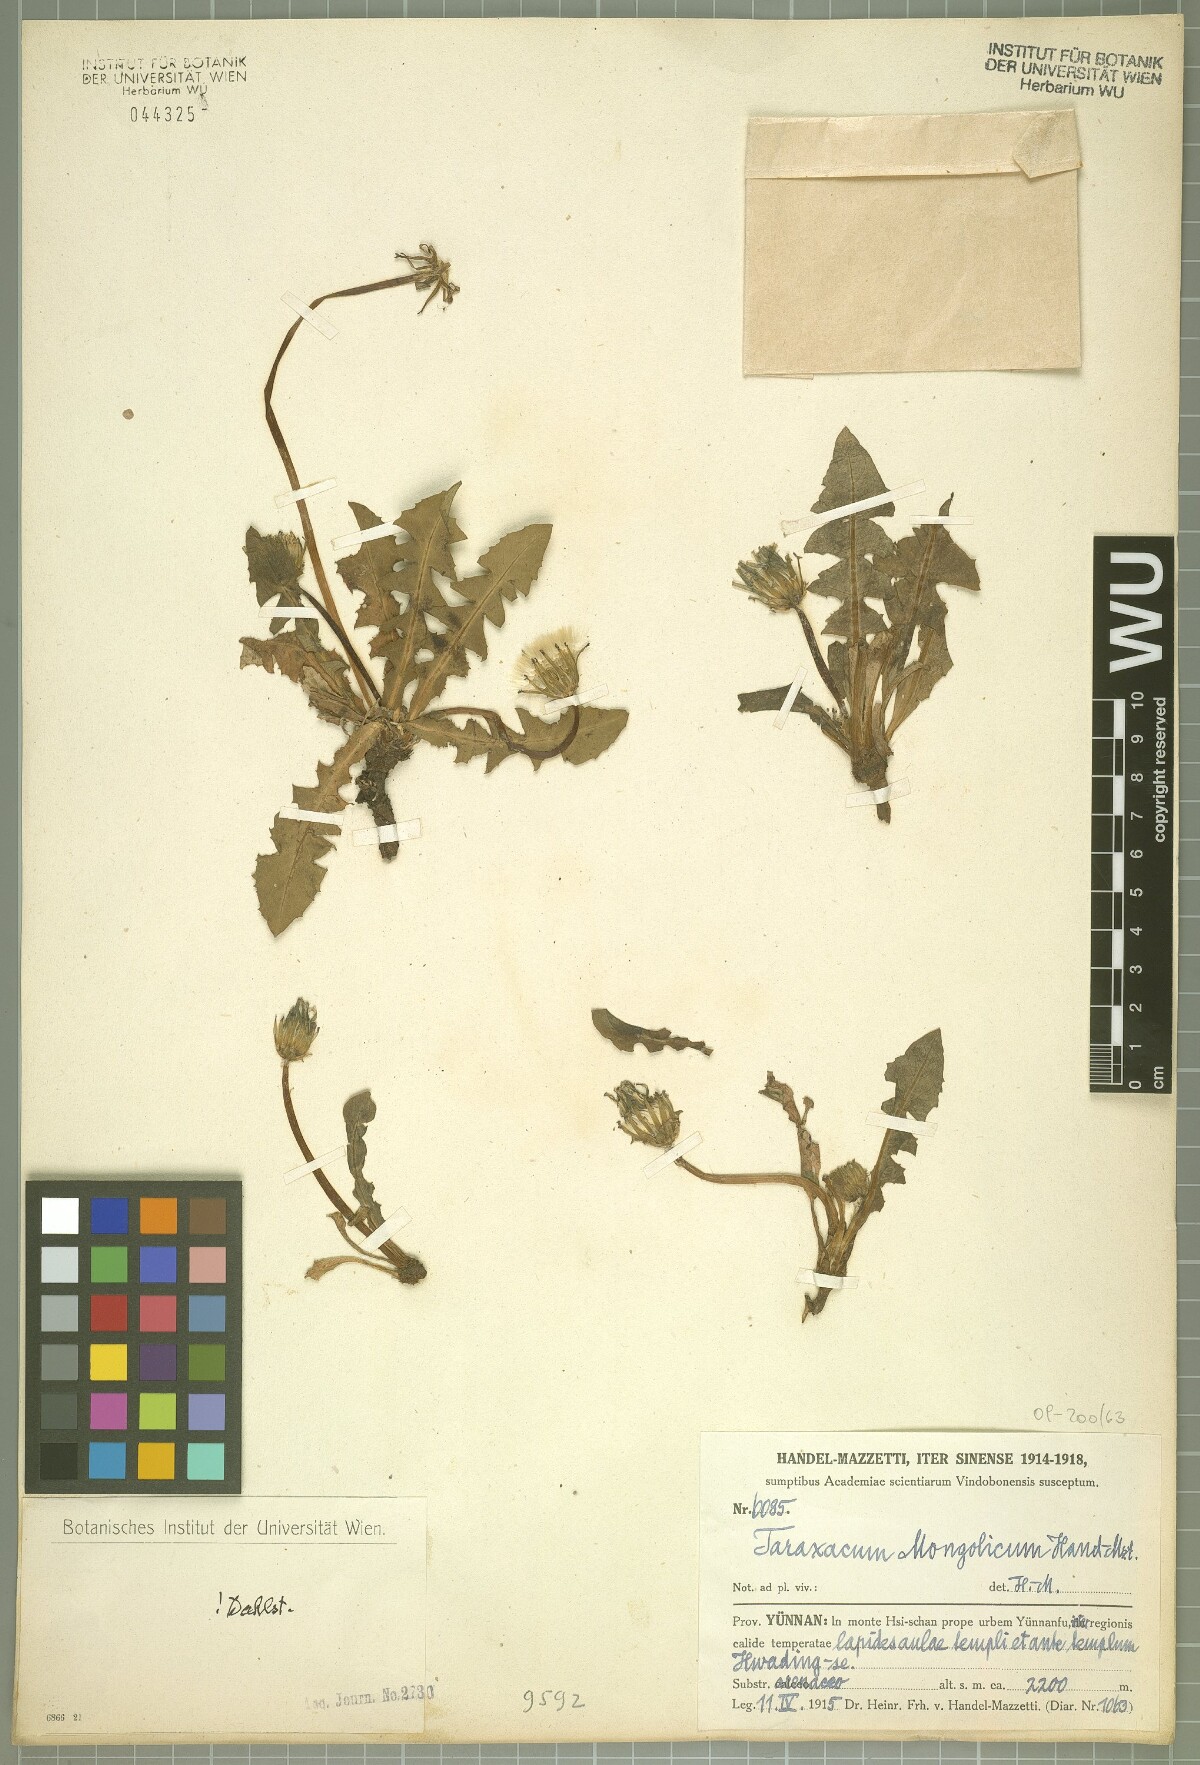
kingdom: Plantae
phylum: Tracheophyta
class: Magnoliopsida
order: Asterales
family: Asteraceae
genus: Taraxacum
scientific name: Taraxacum mongolicum
